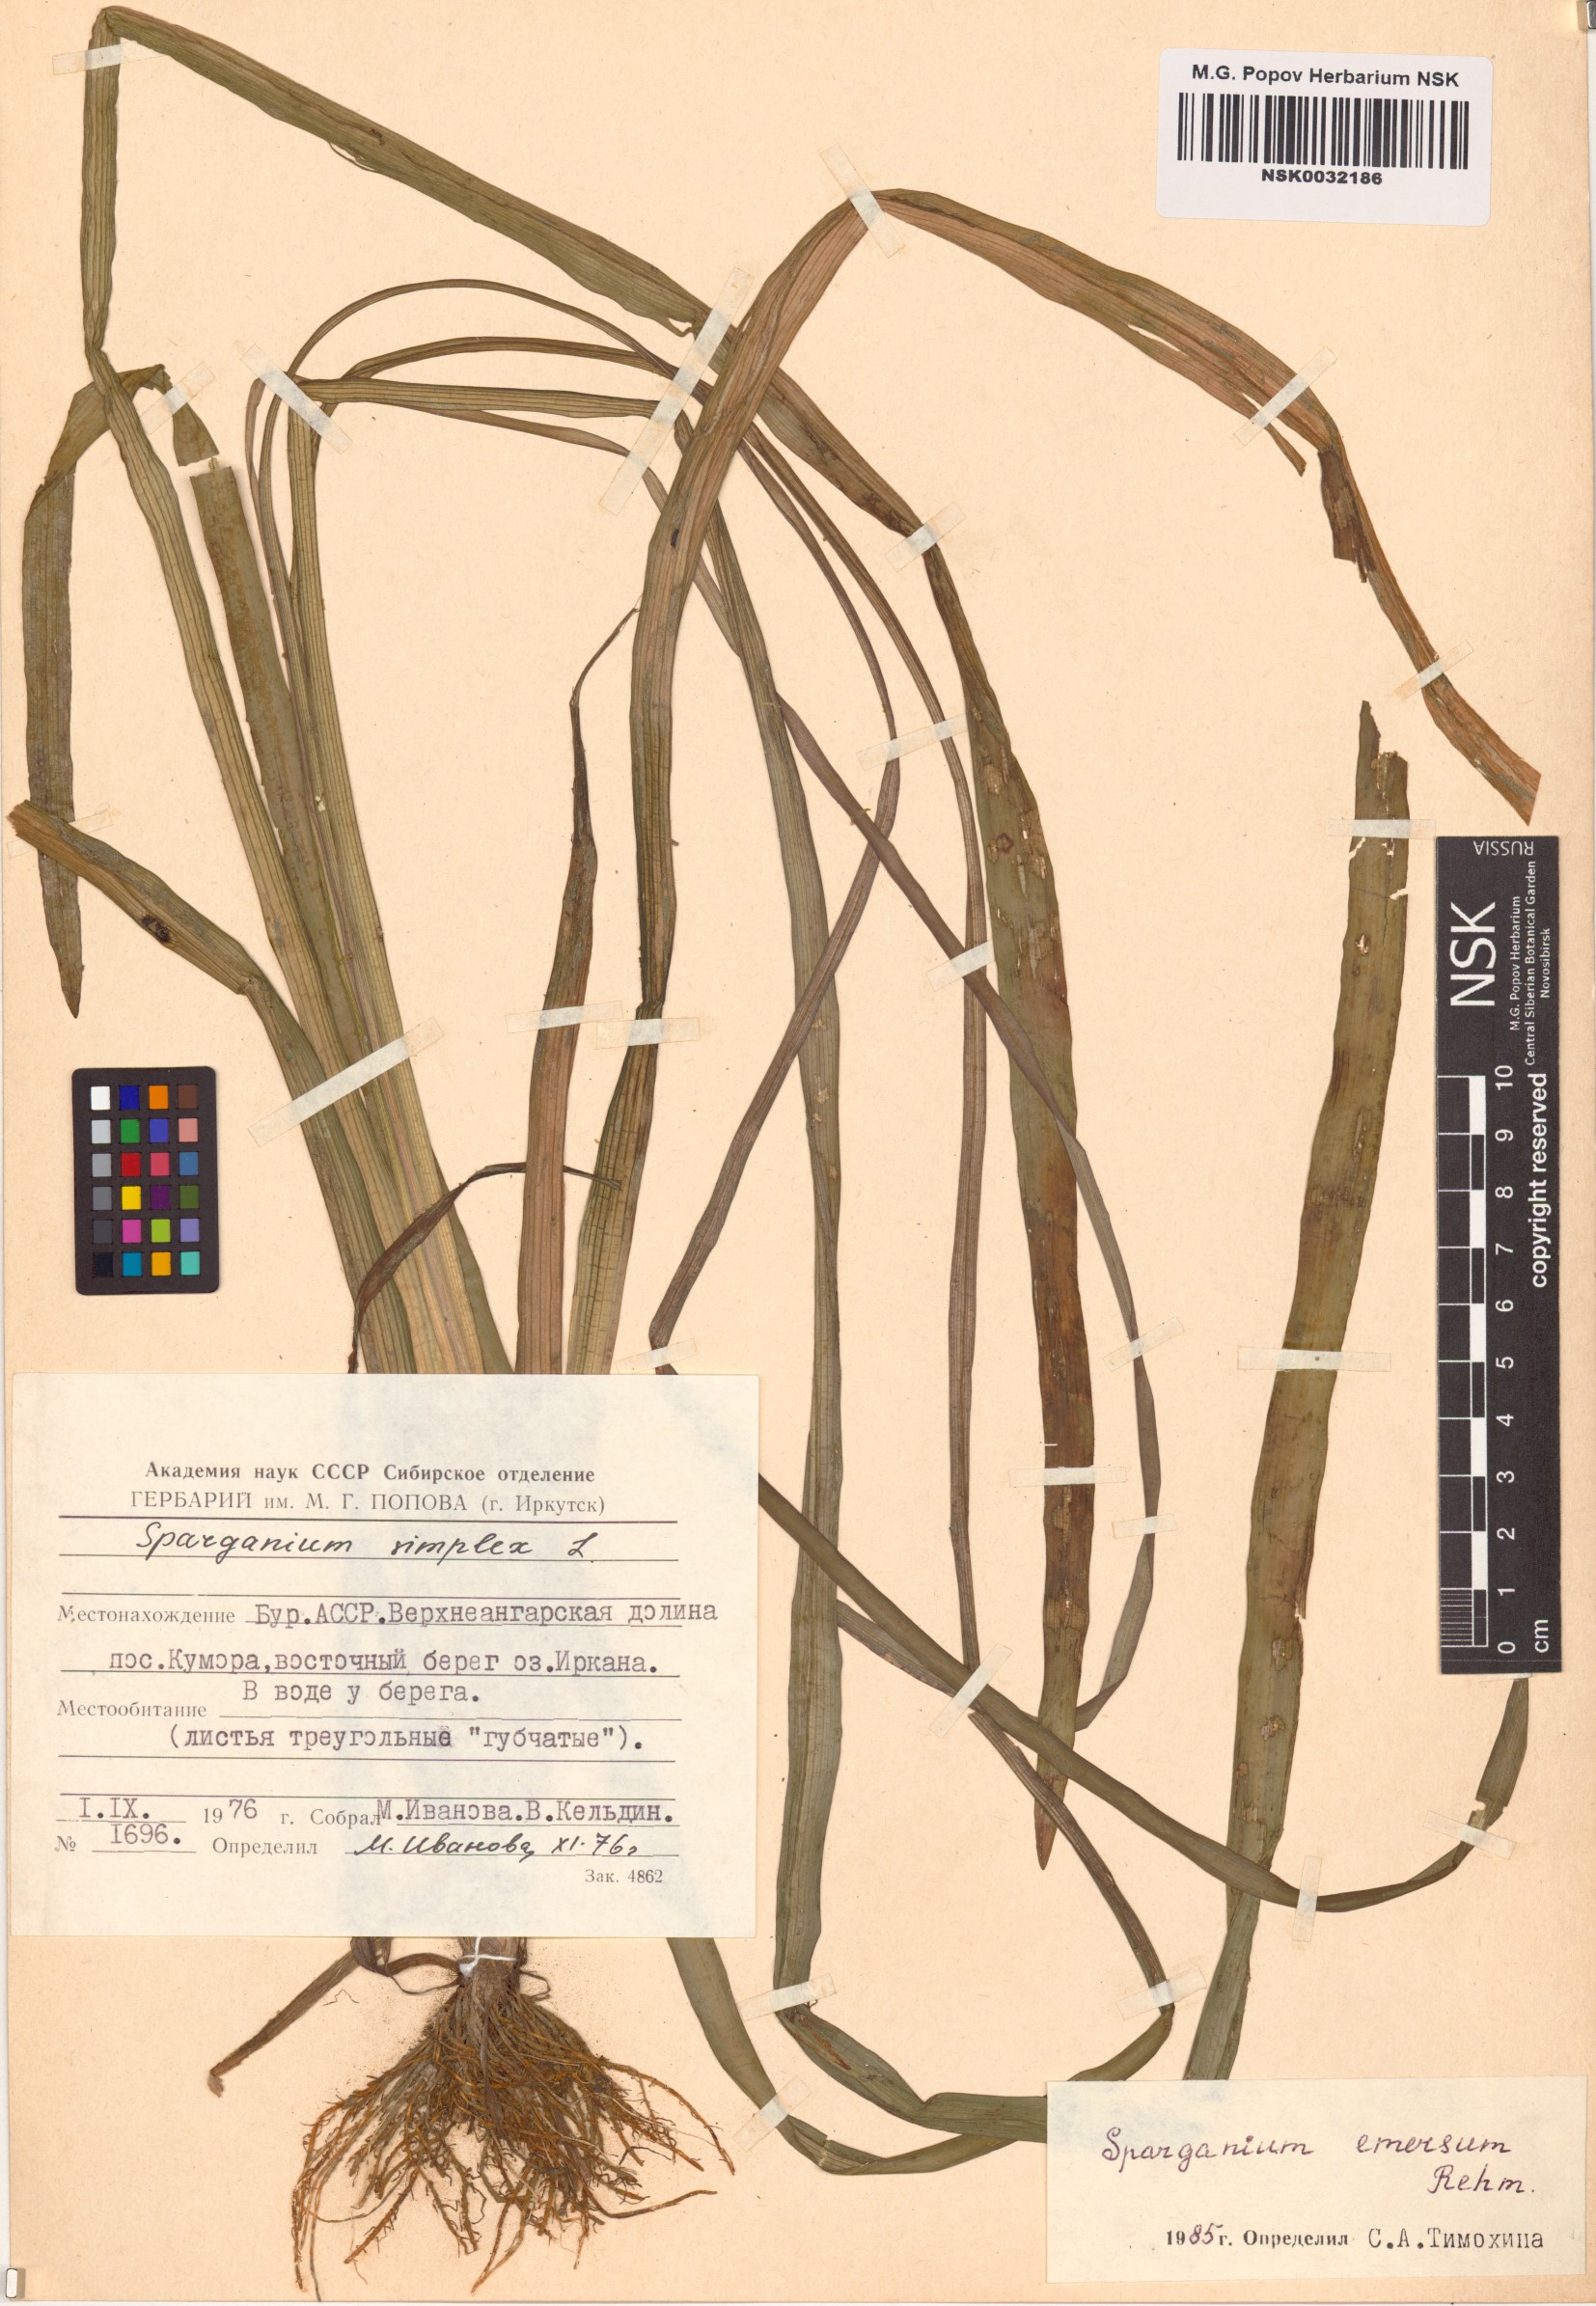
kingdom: Plantae
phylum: Tracheophyta
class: Liliopsida
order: Poales
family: Typhaceae
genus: Sparganium
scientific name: Sparganium emersum
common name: Unbranched bur-reed
